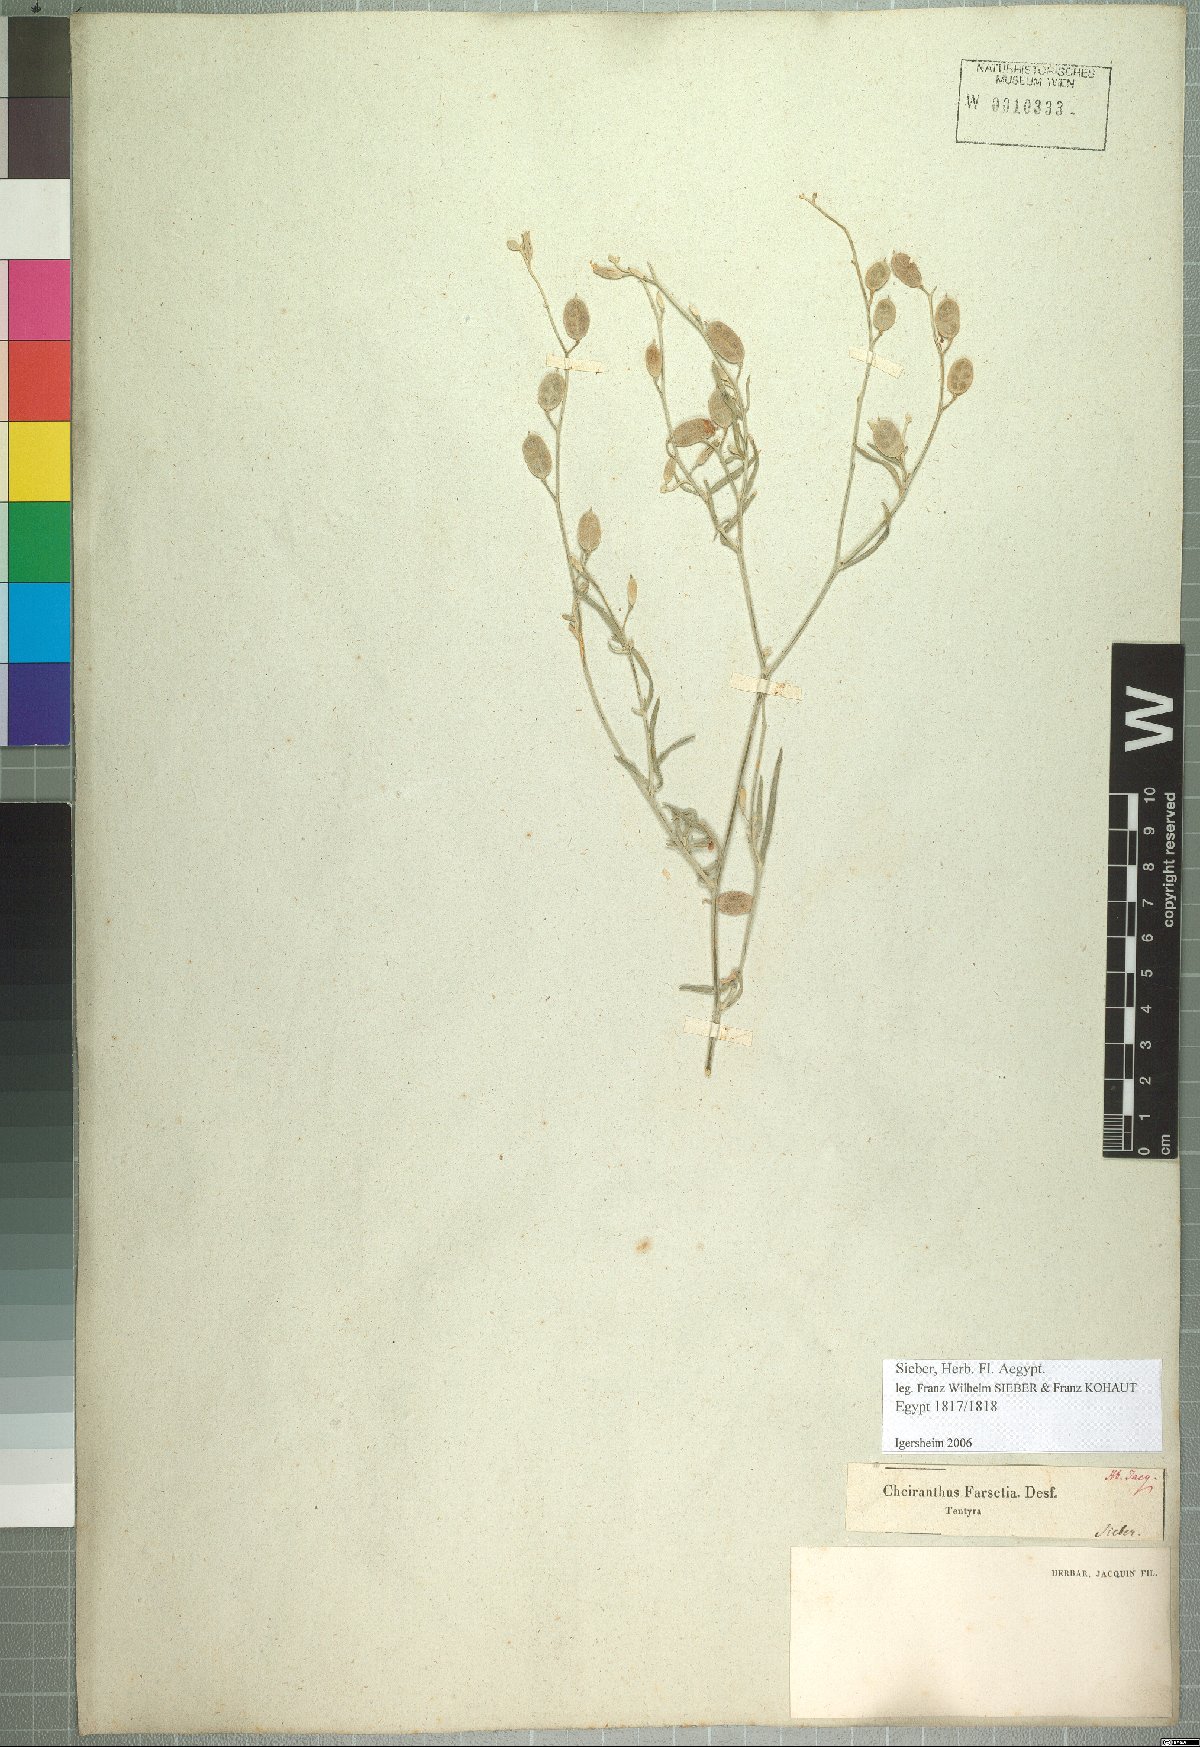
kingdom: Plantae
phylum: Tracheophyta
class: Magnoliopsida
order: Brassicales
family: Brassicaceae
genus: Farsetia
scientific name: Farsetia aegyptia
